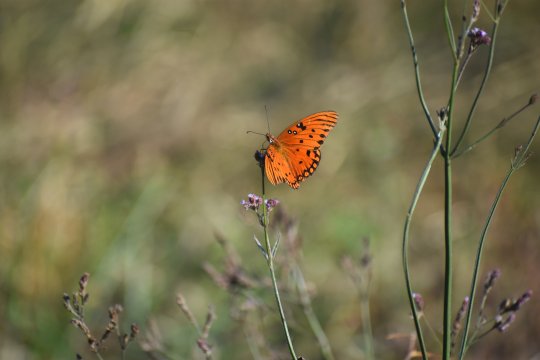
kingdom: Animalia
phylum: Arthropoda
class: Insecta
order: Lepidoptera
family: Nymphalidae
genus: Dione
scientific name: Dione vanillae
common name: Gulf Fritillary
